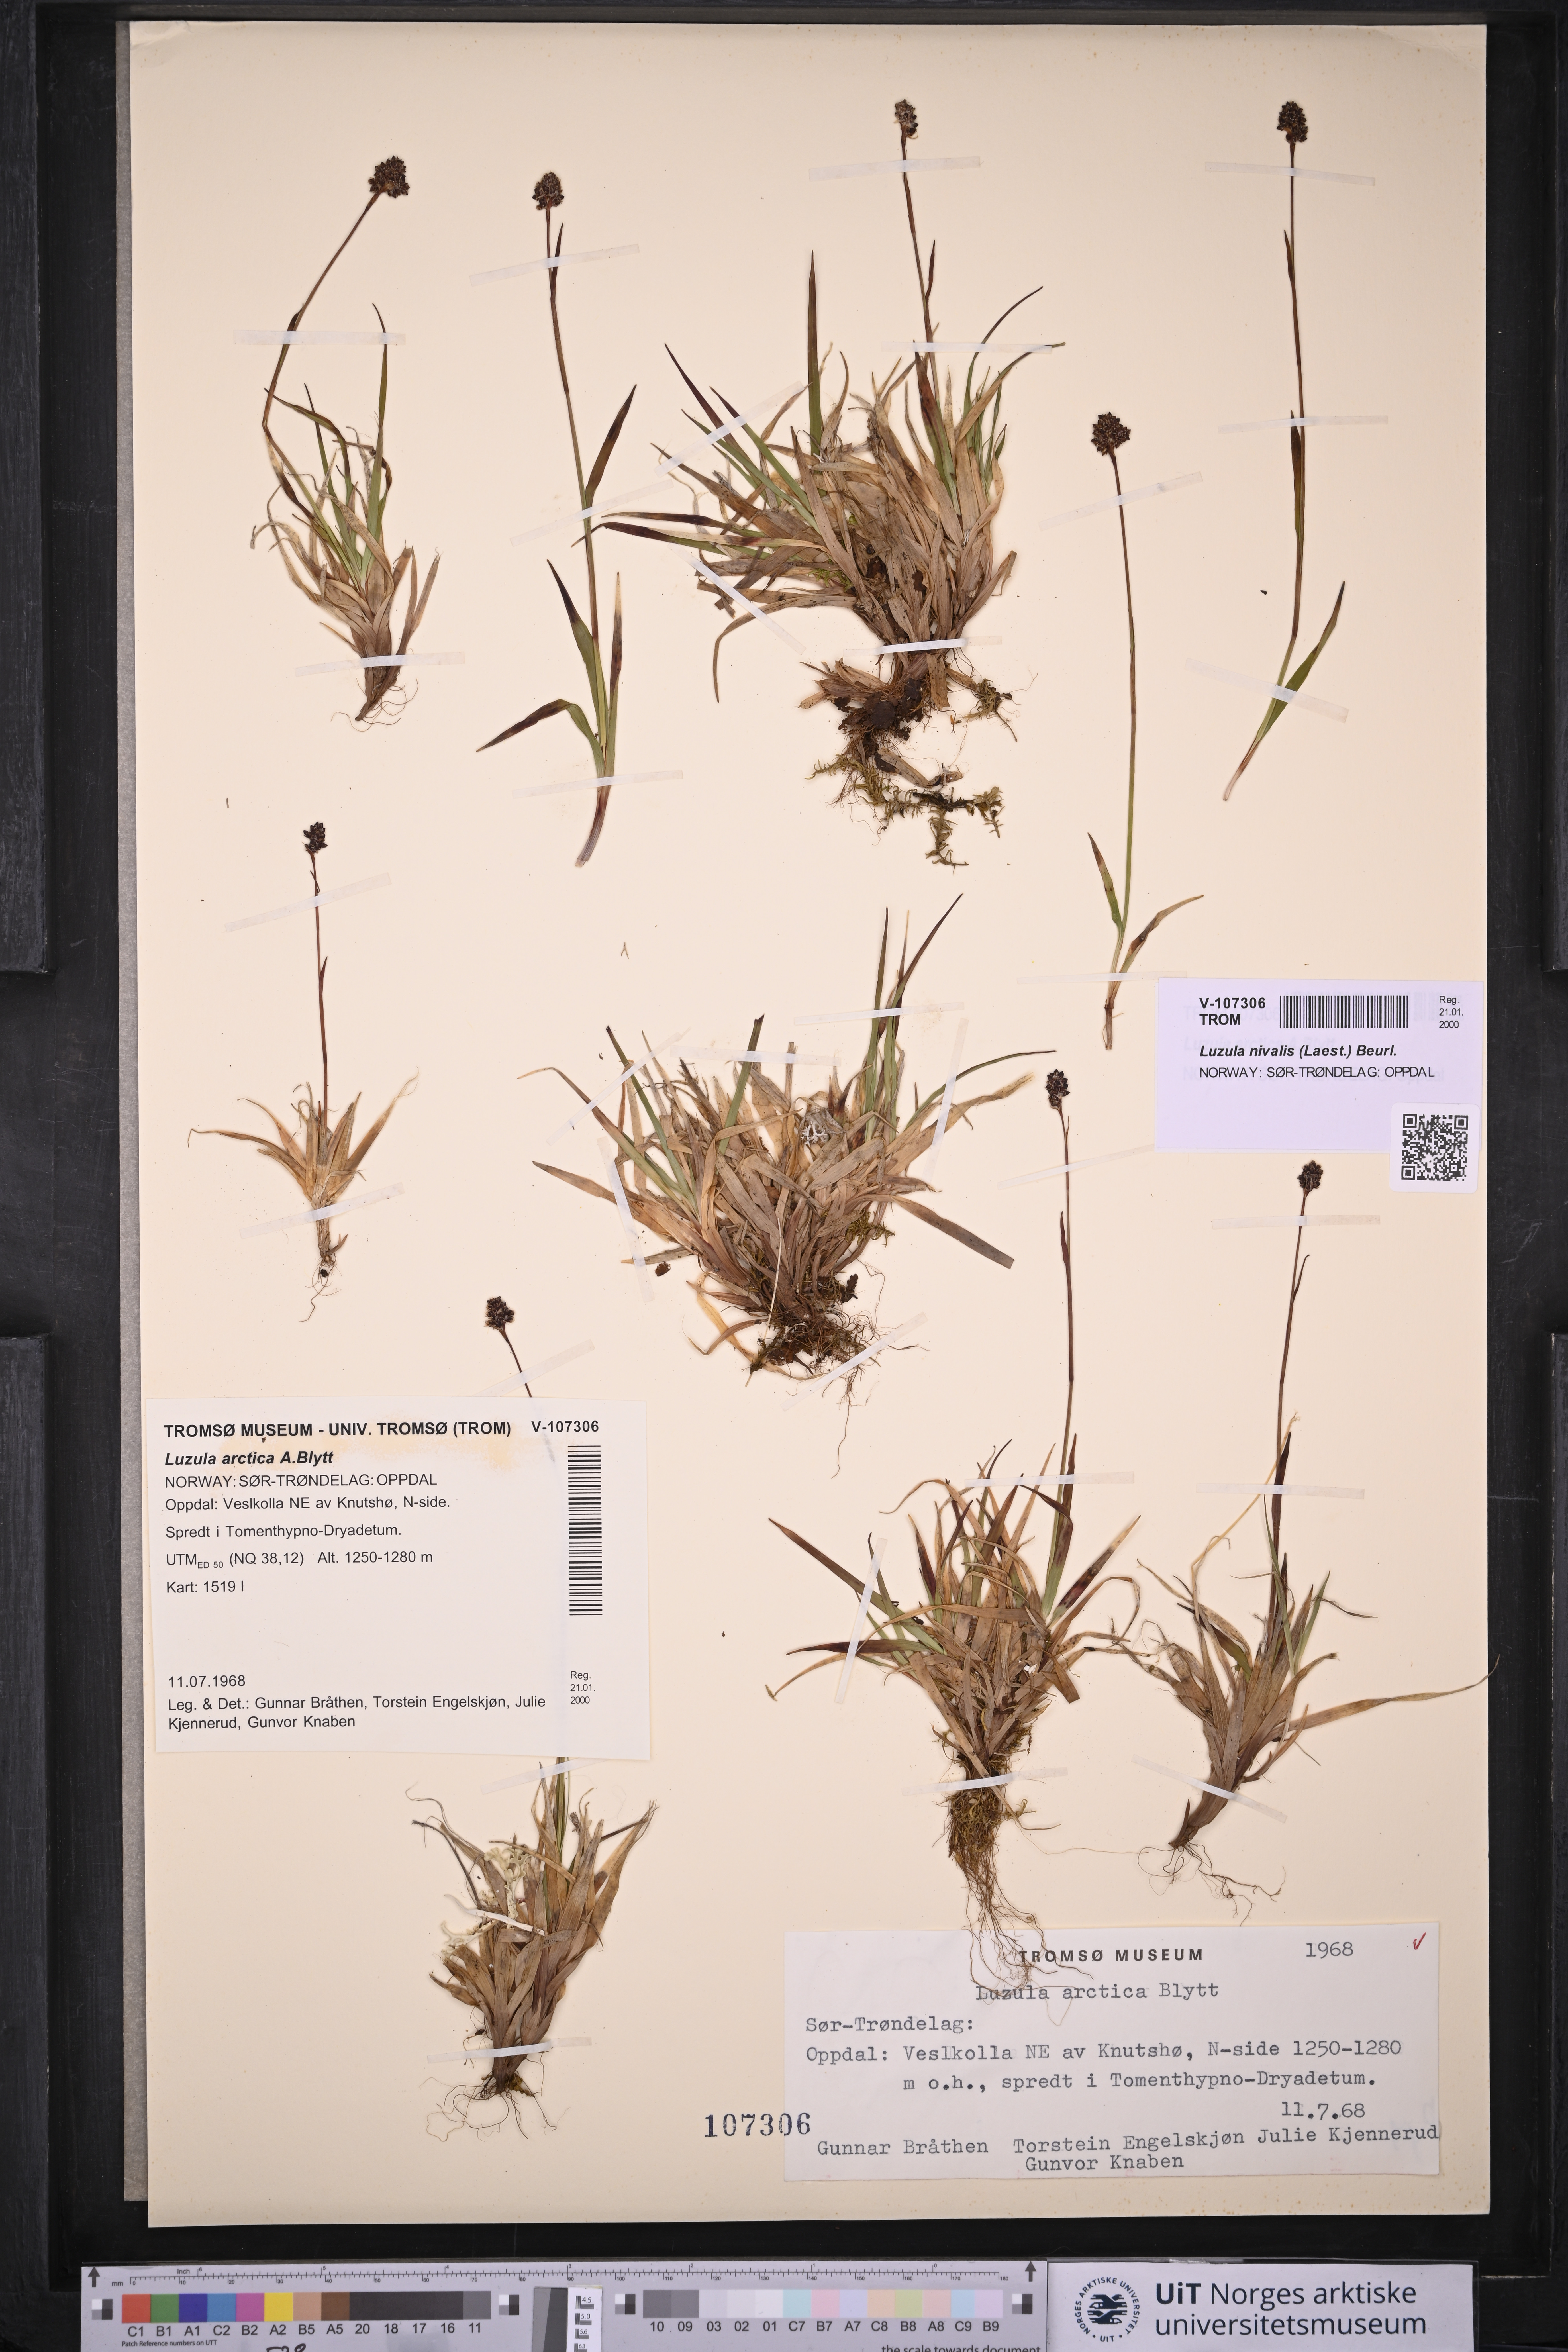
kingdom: Plantae
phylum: Tracheophyta
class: Liliopsida
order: Poales
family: Juncaceae
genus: Luzula
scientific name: Luzula nivalis
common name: Arctic woodrush
